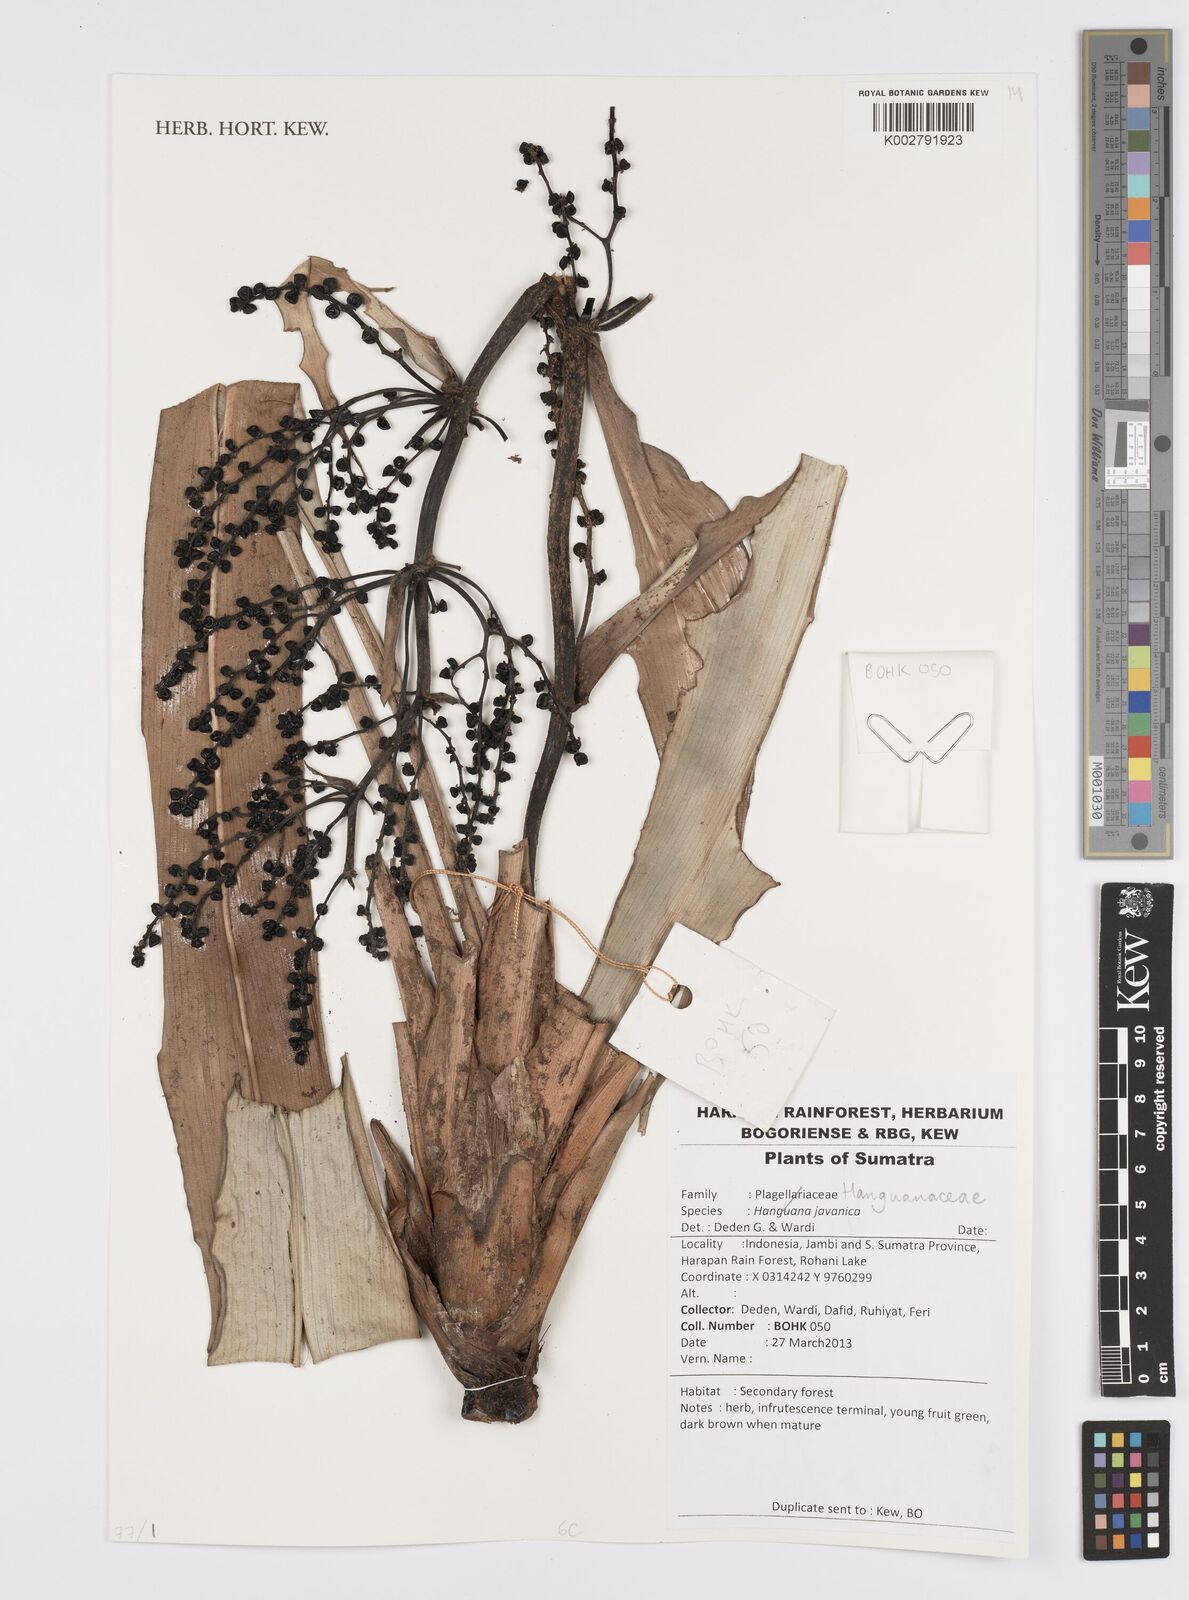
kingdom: Plantae
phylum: Tracheophyta
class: Liliopsida
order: Commelinales
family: Hanguanaceae
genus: Hanguana
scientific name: Hanguana
